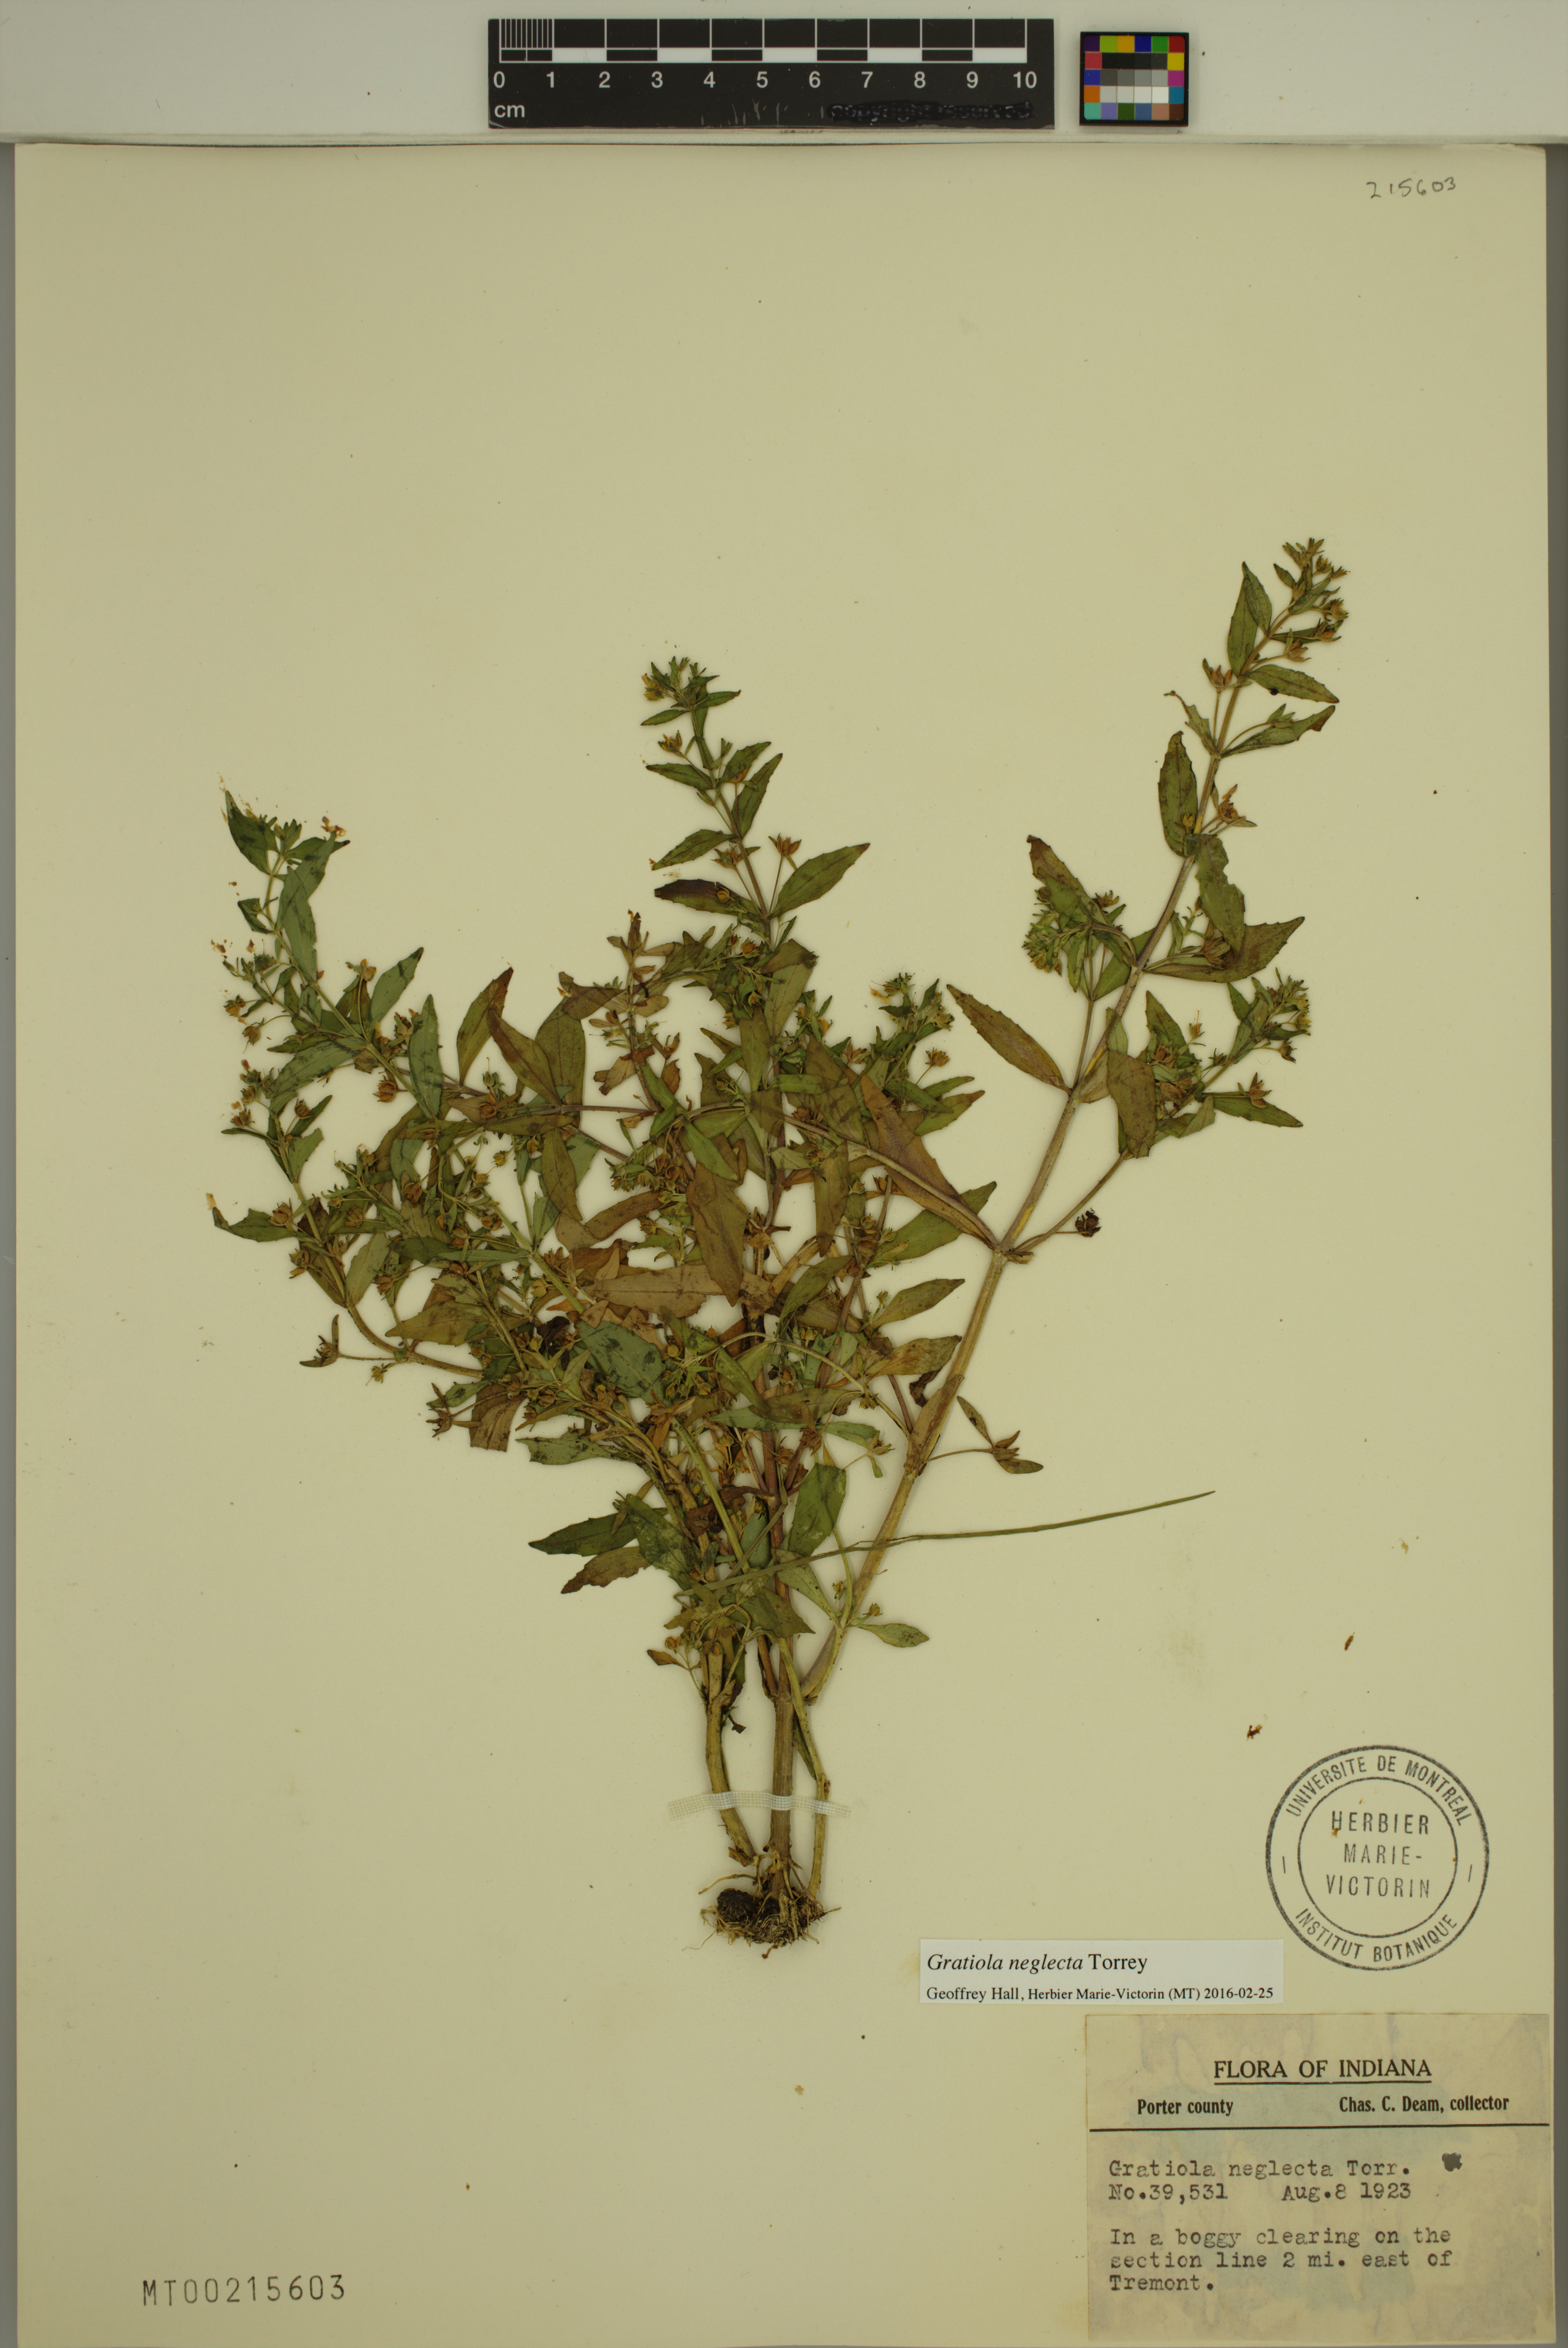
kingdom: Plantae
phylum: Tracheophyta
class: Magnoliopsida
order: Lamiales
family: Plantaginaceae
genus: Gratiola
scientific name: Gratiola neglecta
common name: American hedge-hyssop
